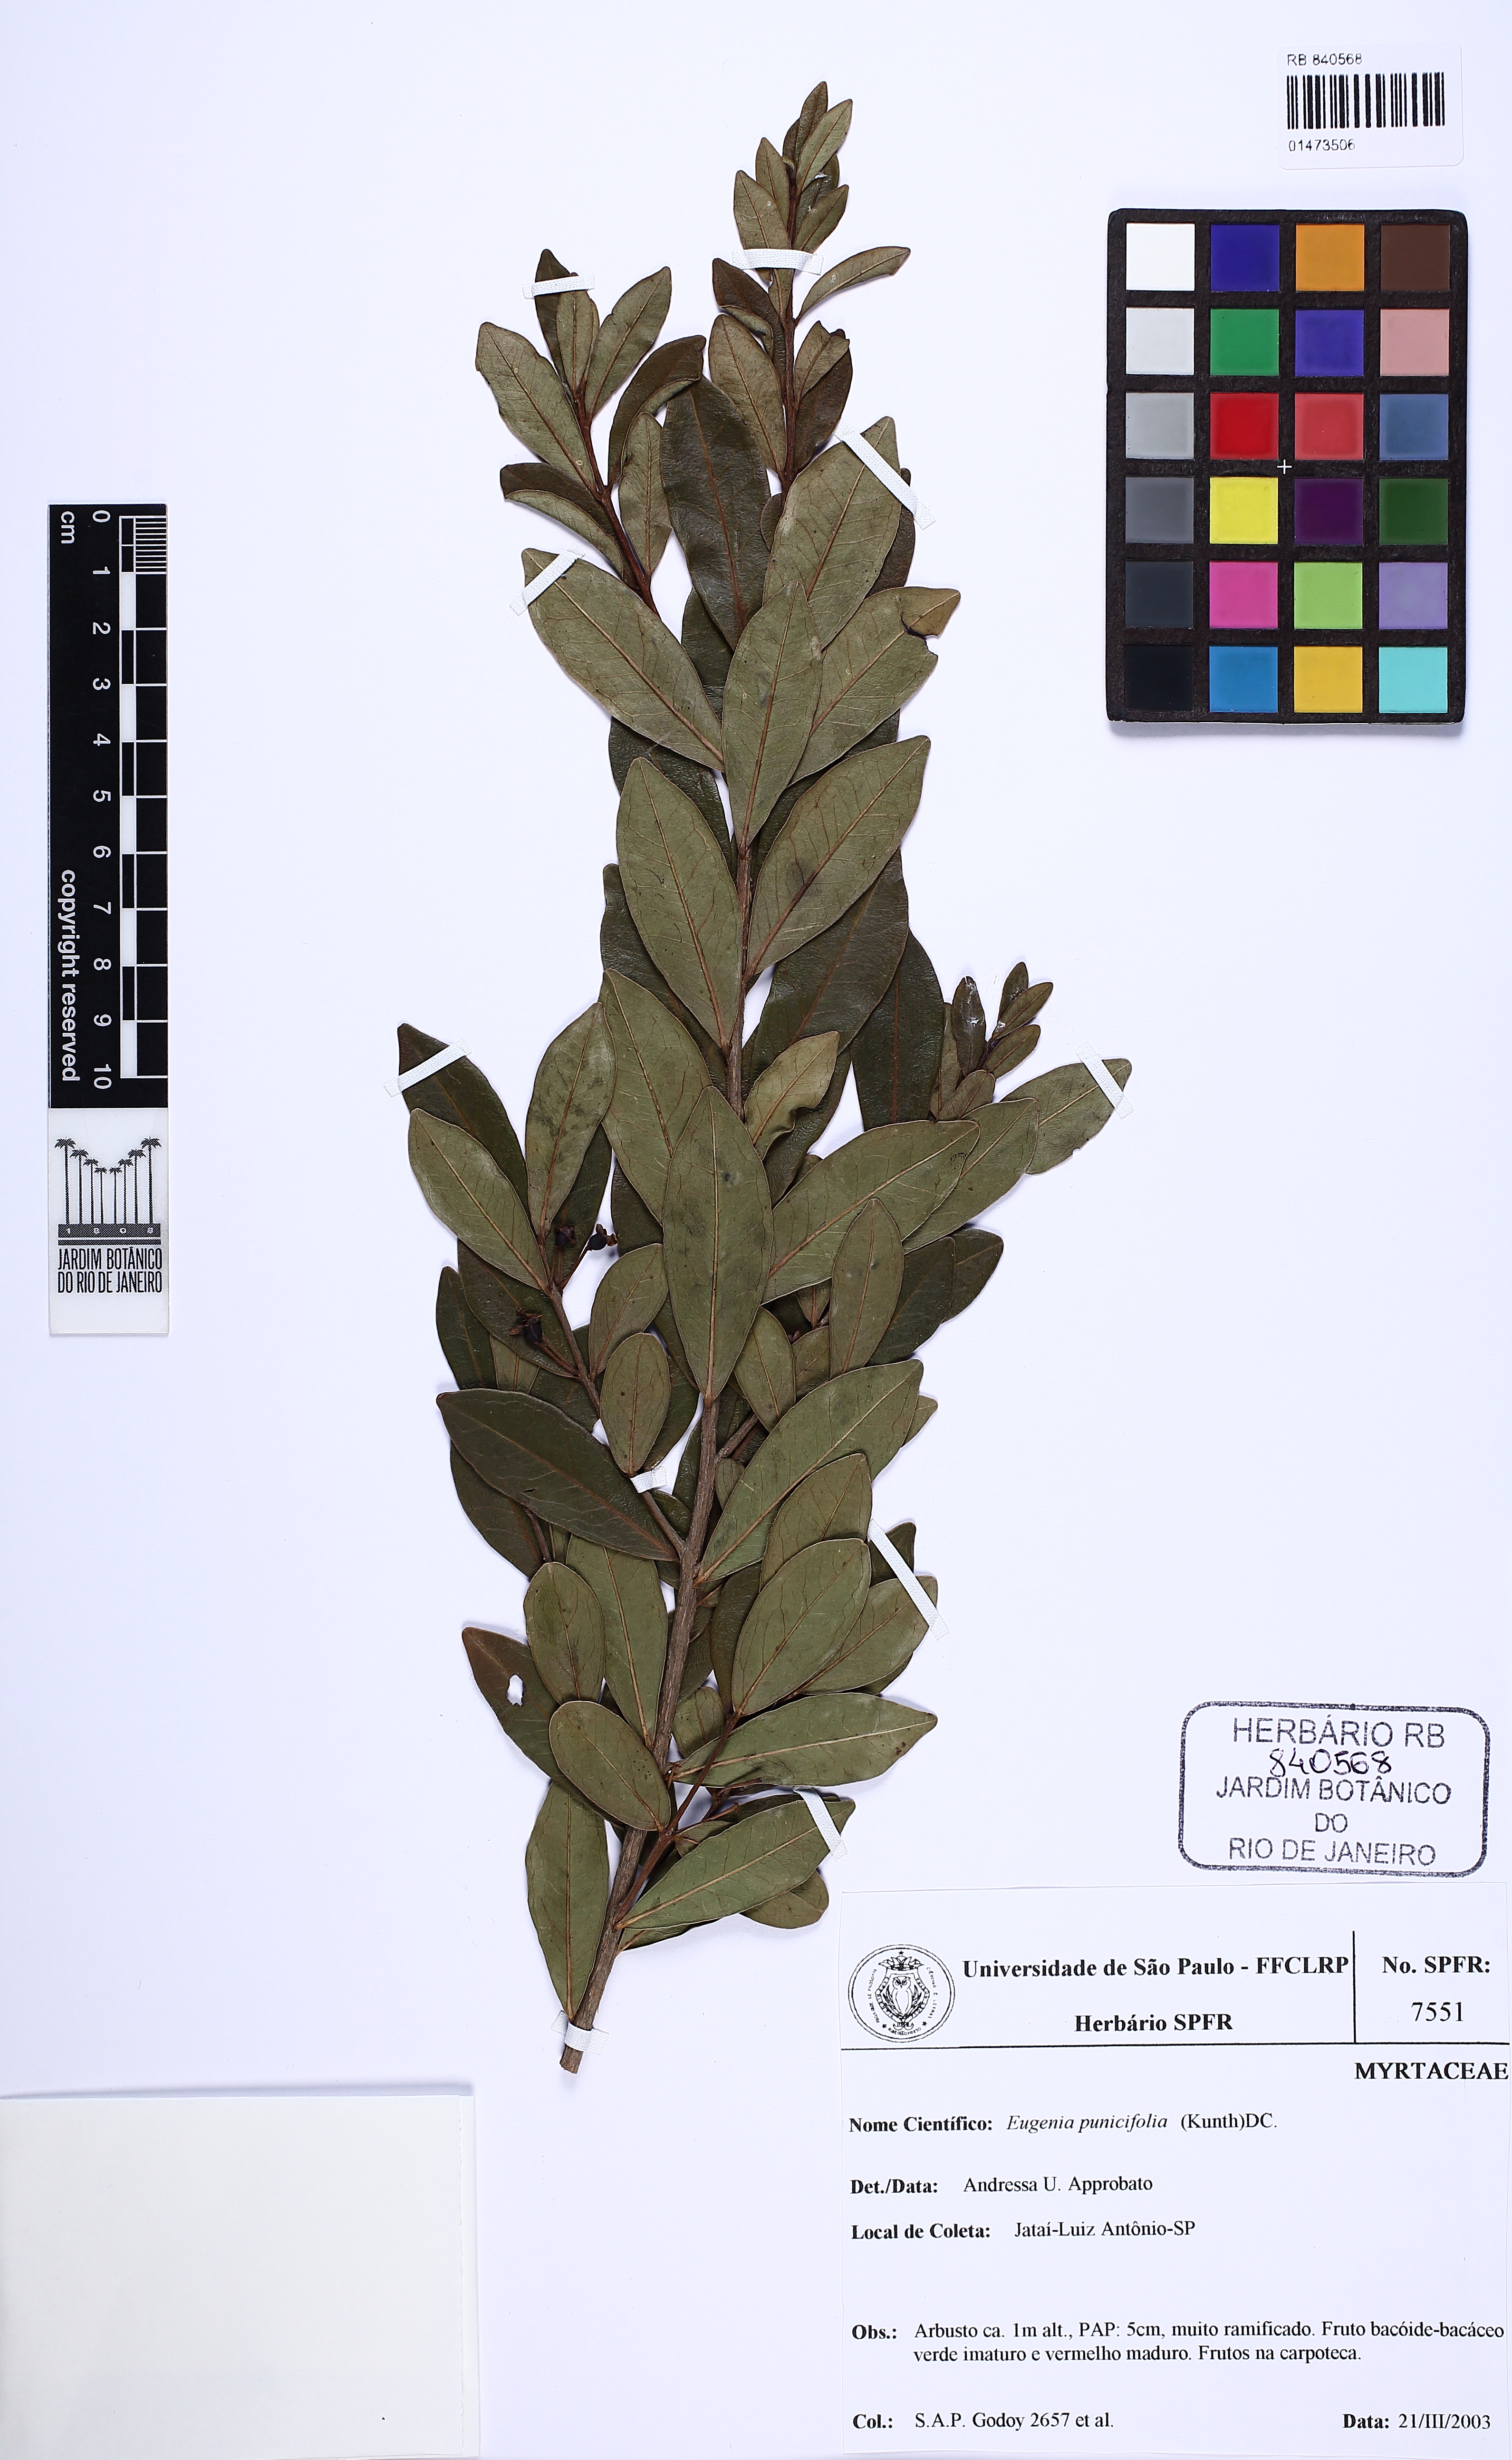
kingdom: Plantae
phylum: Tracheophyta
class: Magnoliopsida
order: Myrtales
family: Myrtaceae
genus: Eugenia
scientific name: Eugenia punicifolia
